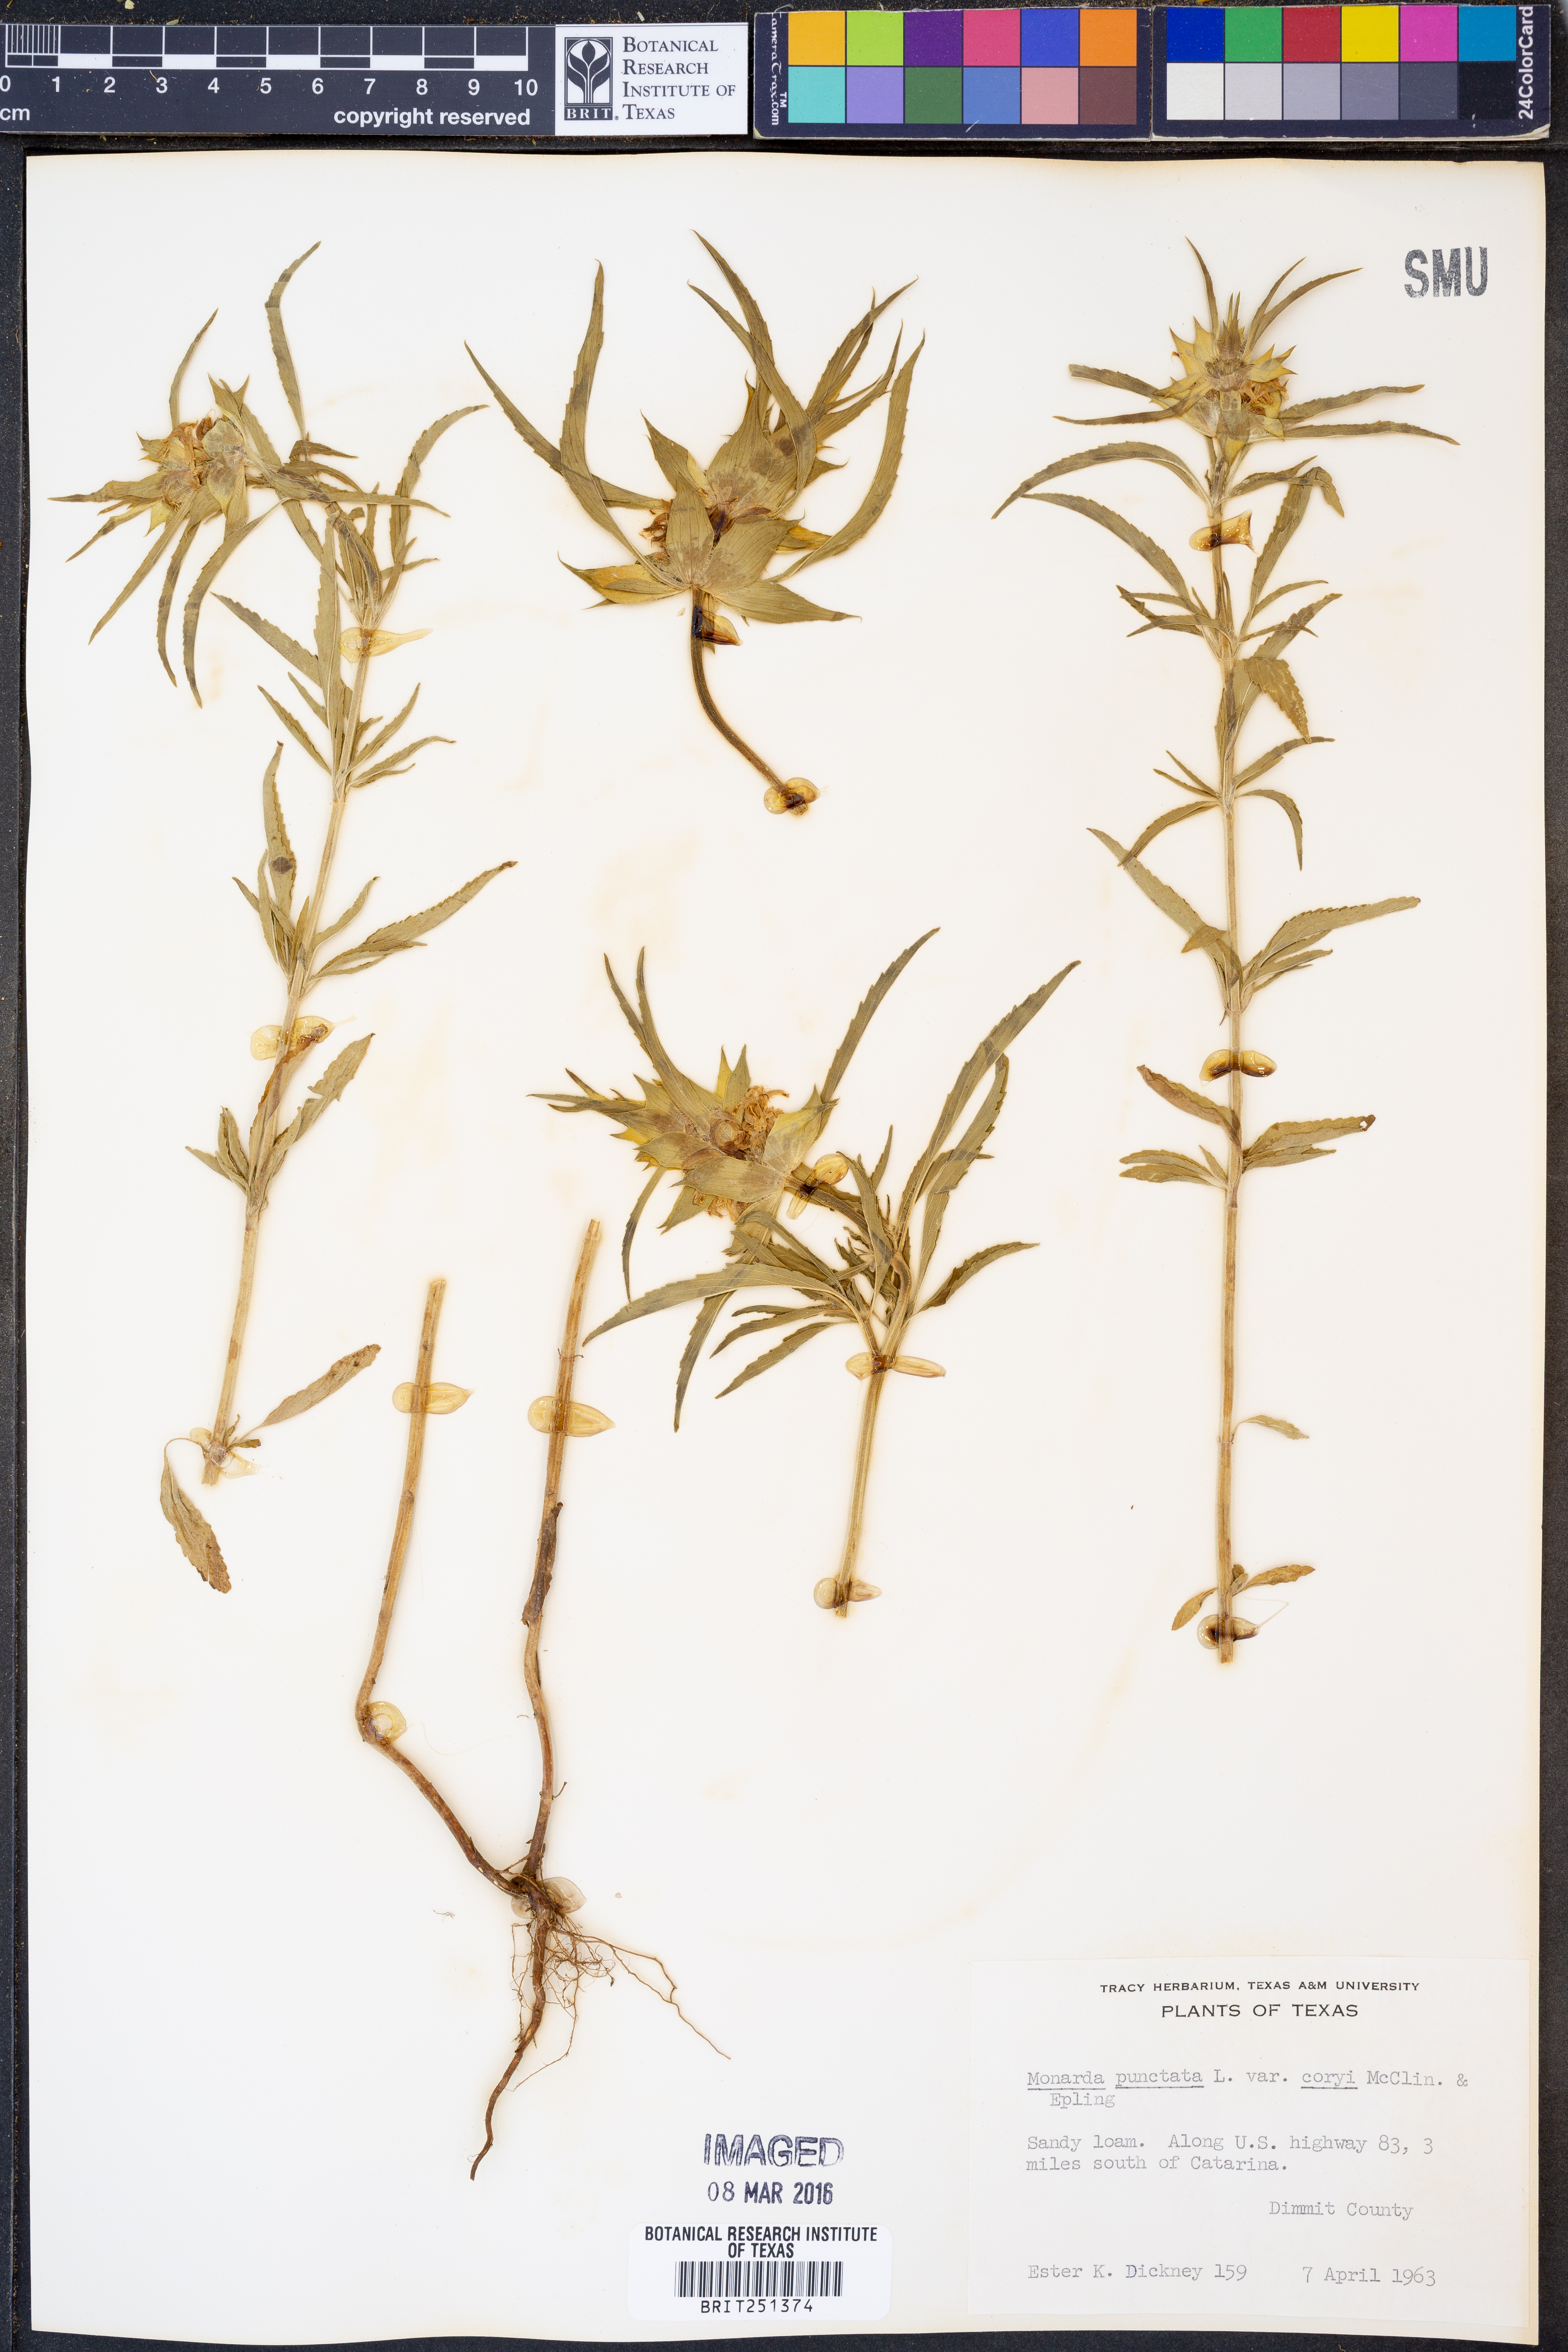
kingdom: Plantae
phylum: Tracheophyta
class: Magnoliopsida
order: Lamiales
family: Lamiaceae
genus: Monarda
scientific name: Monarda punctata
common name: Dotted monarda
